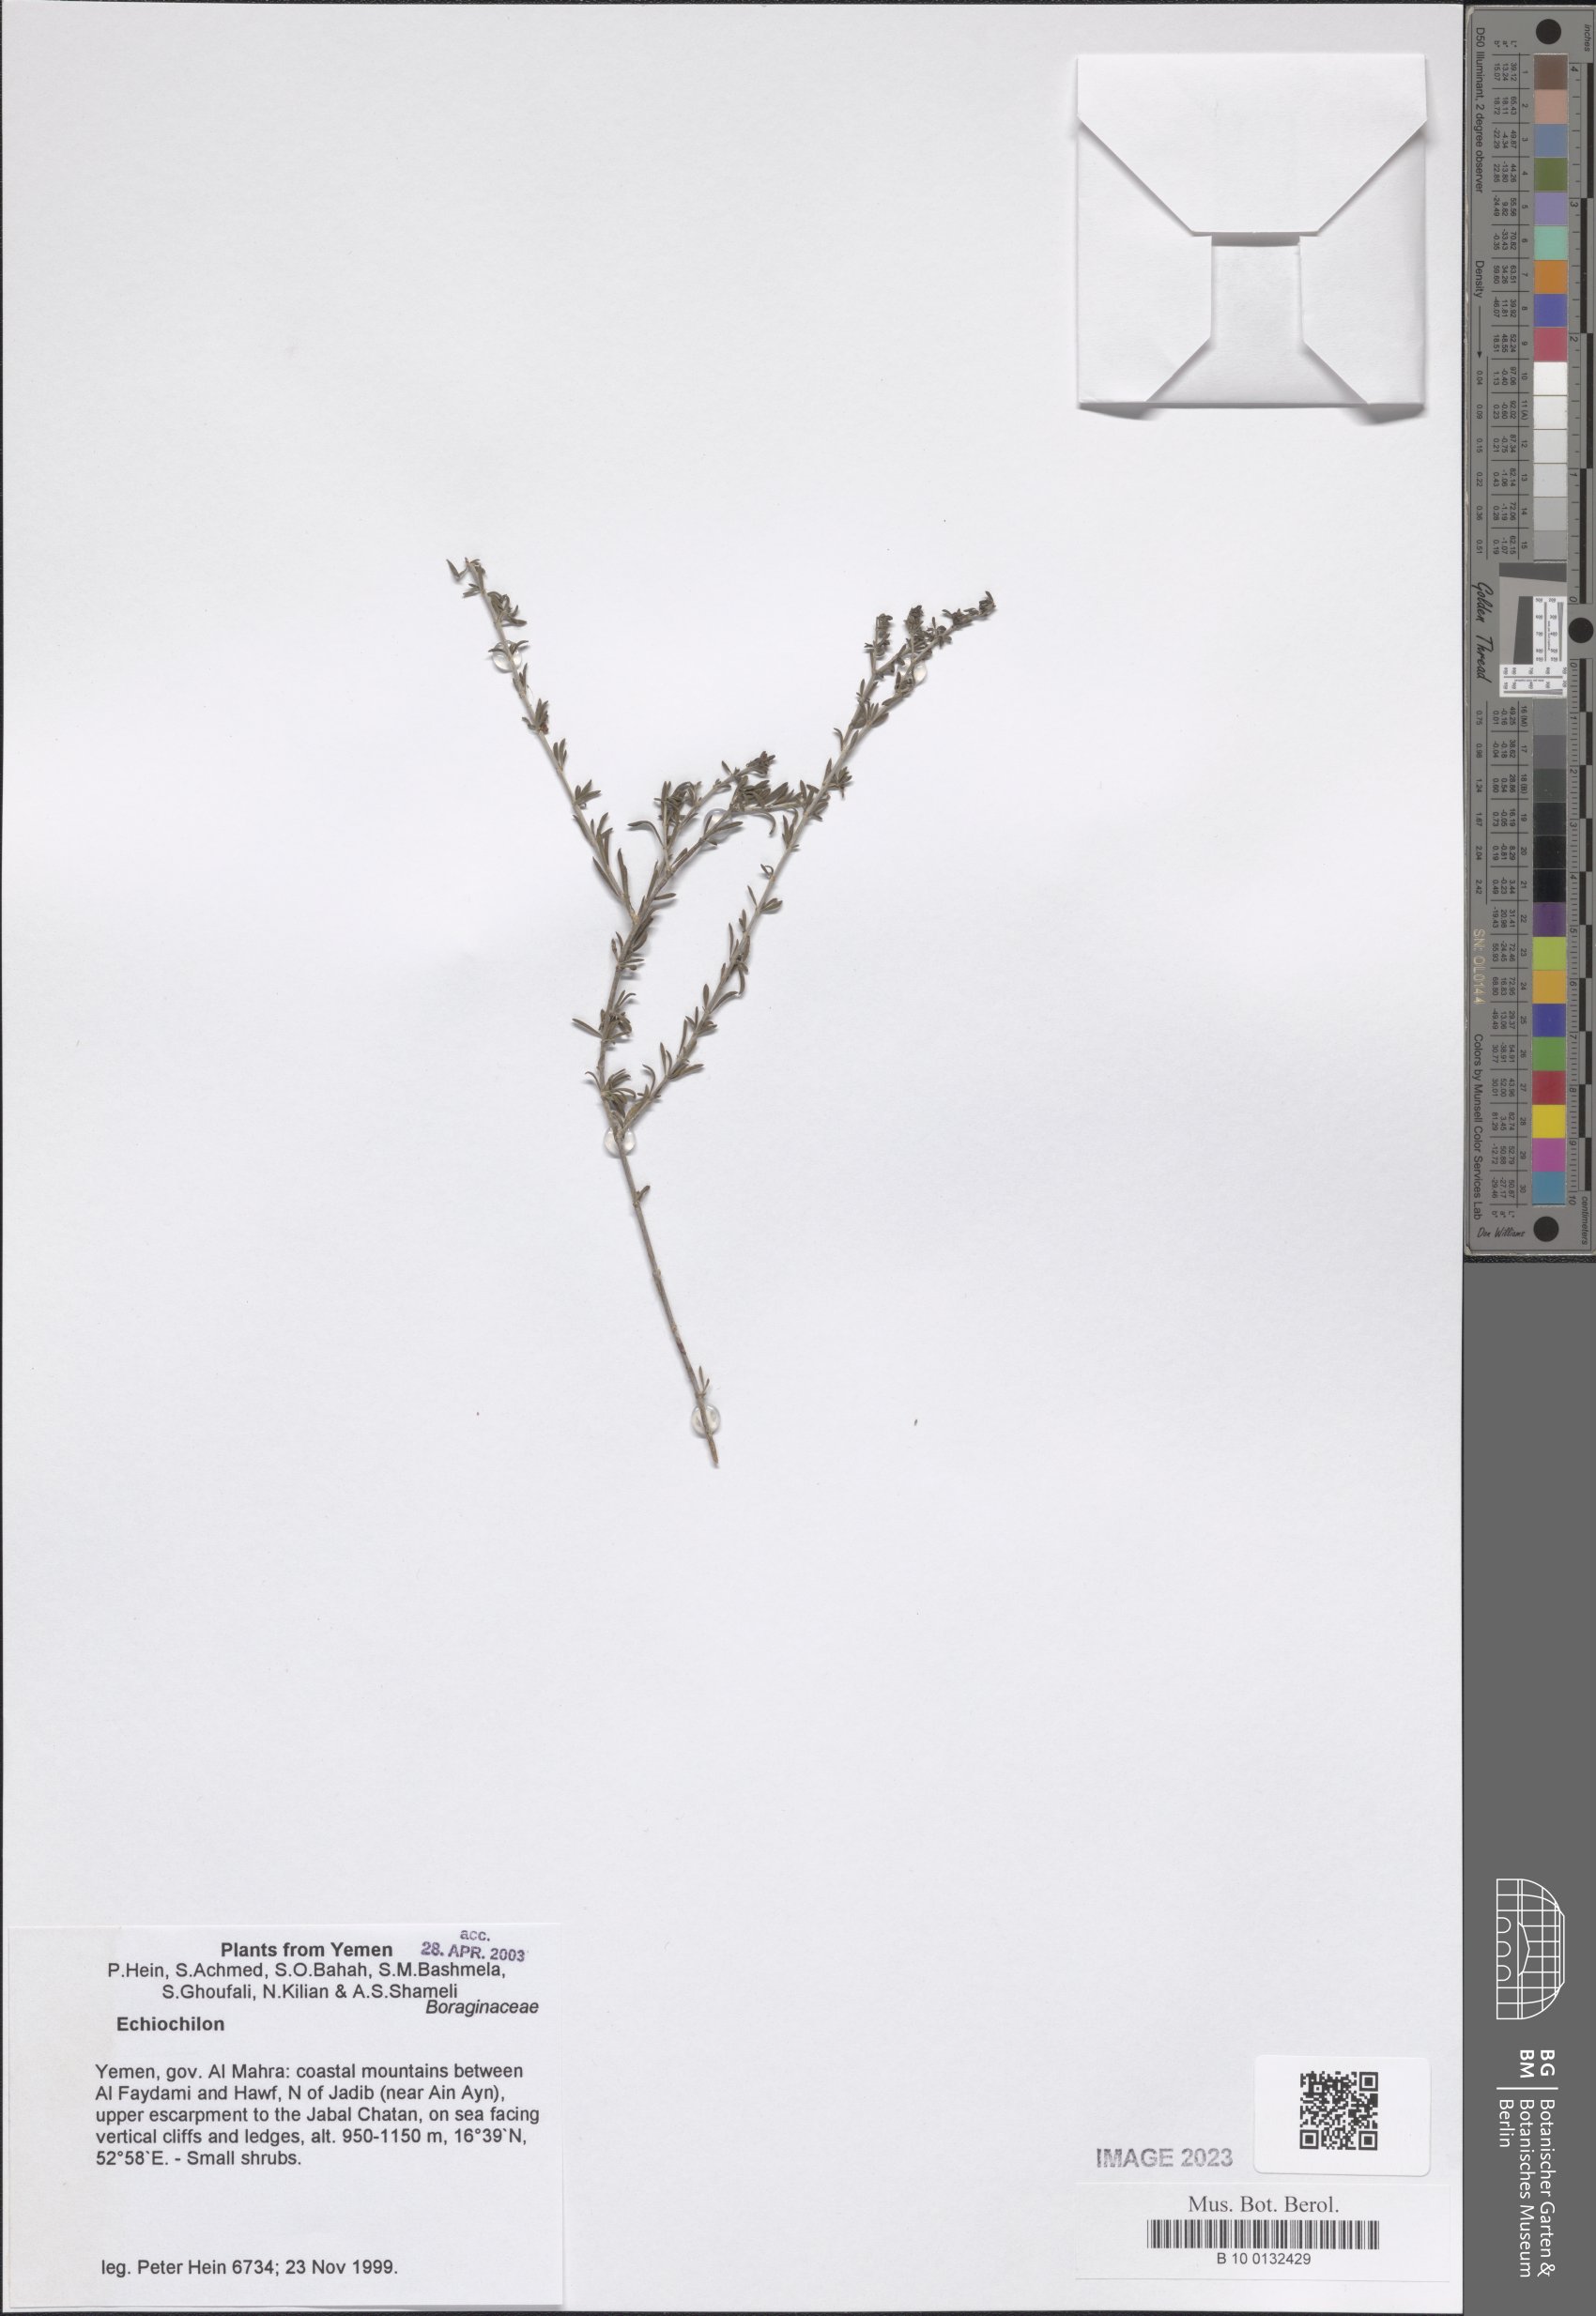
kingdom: Plantae
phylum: Tracheophyta
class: Magnoliopsida
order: Boraginales
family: Boraginaceae
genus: Echiochilon
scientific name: Echiochilon
